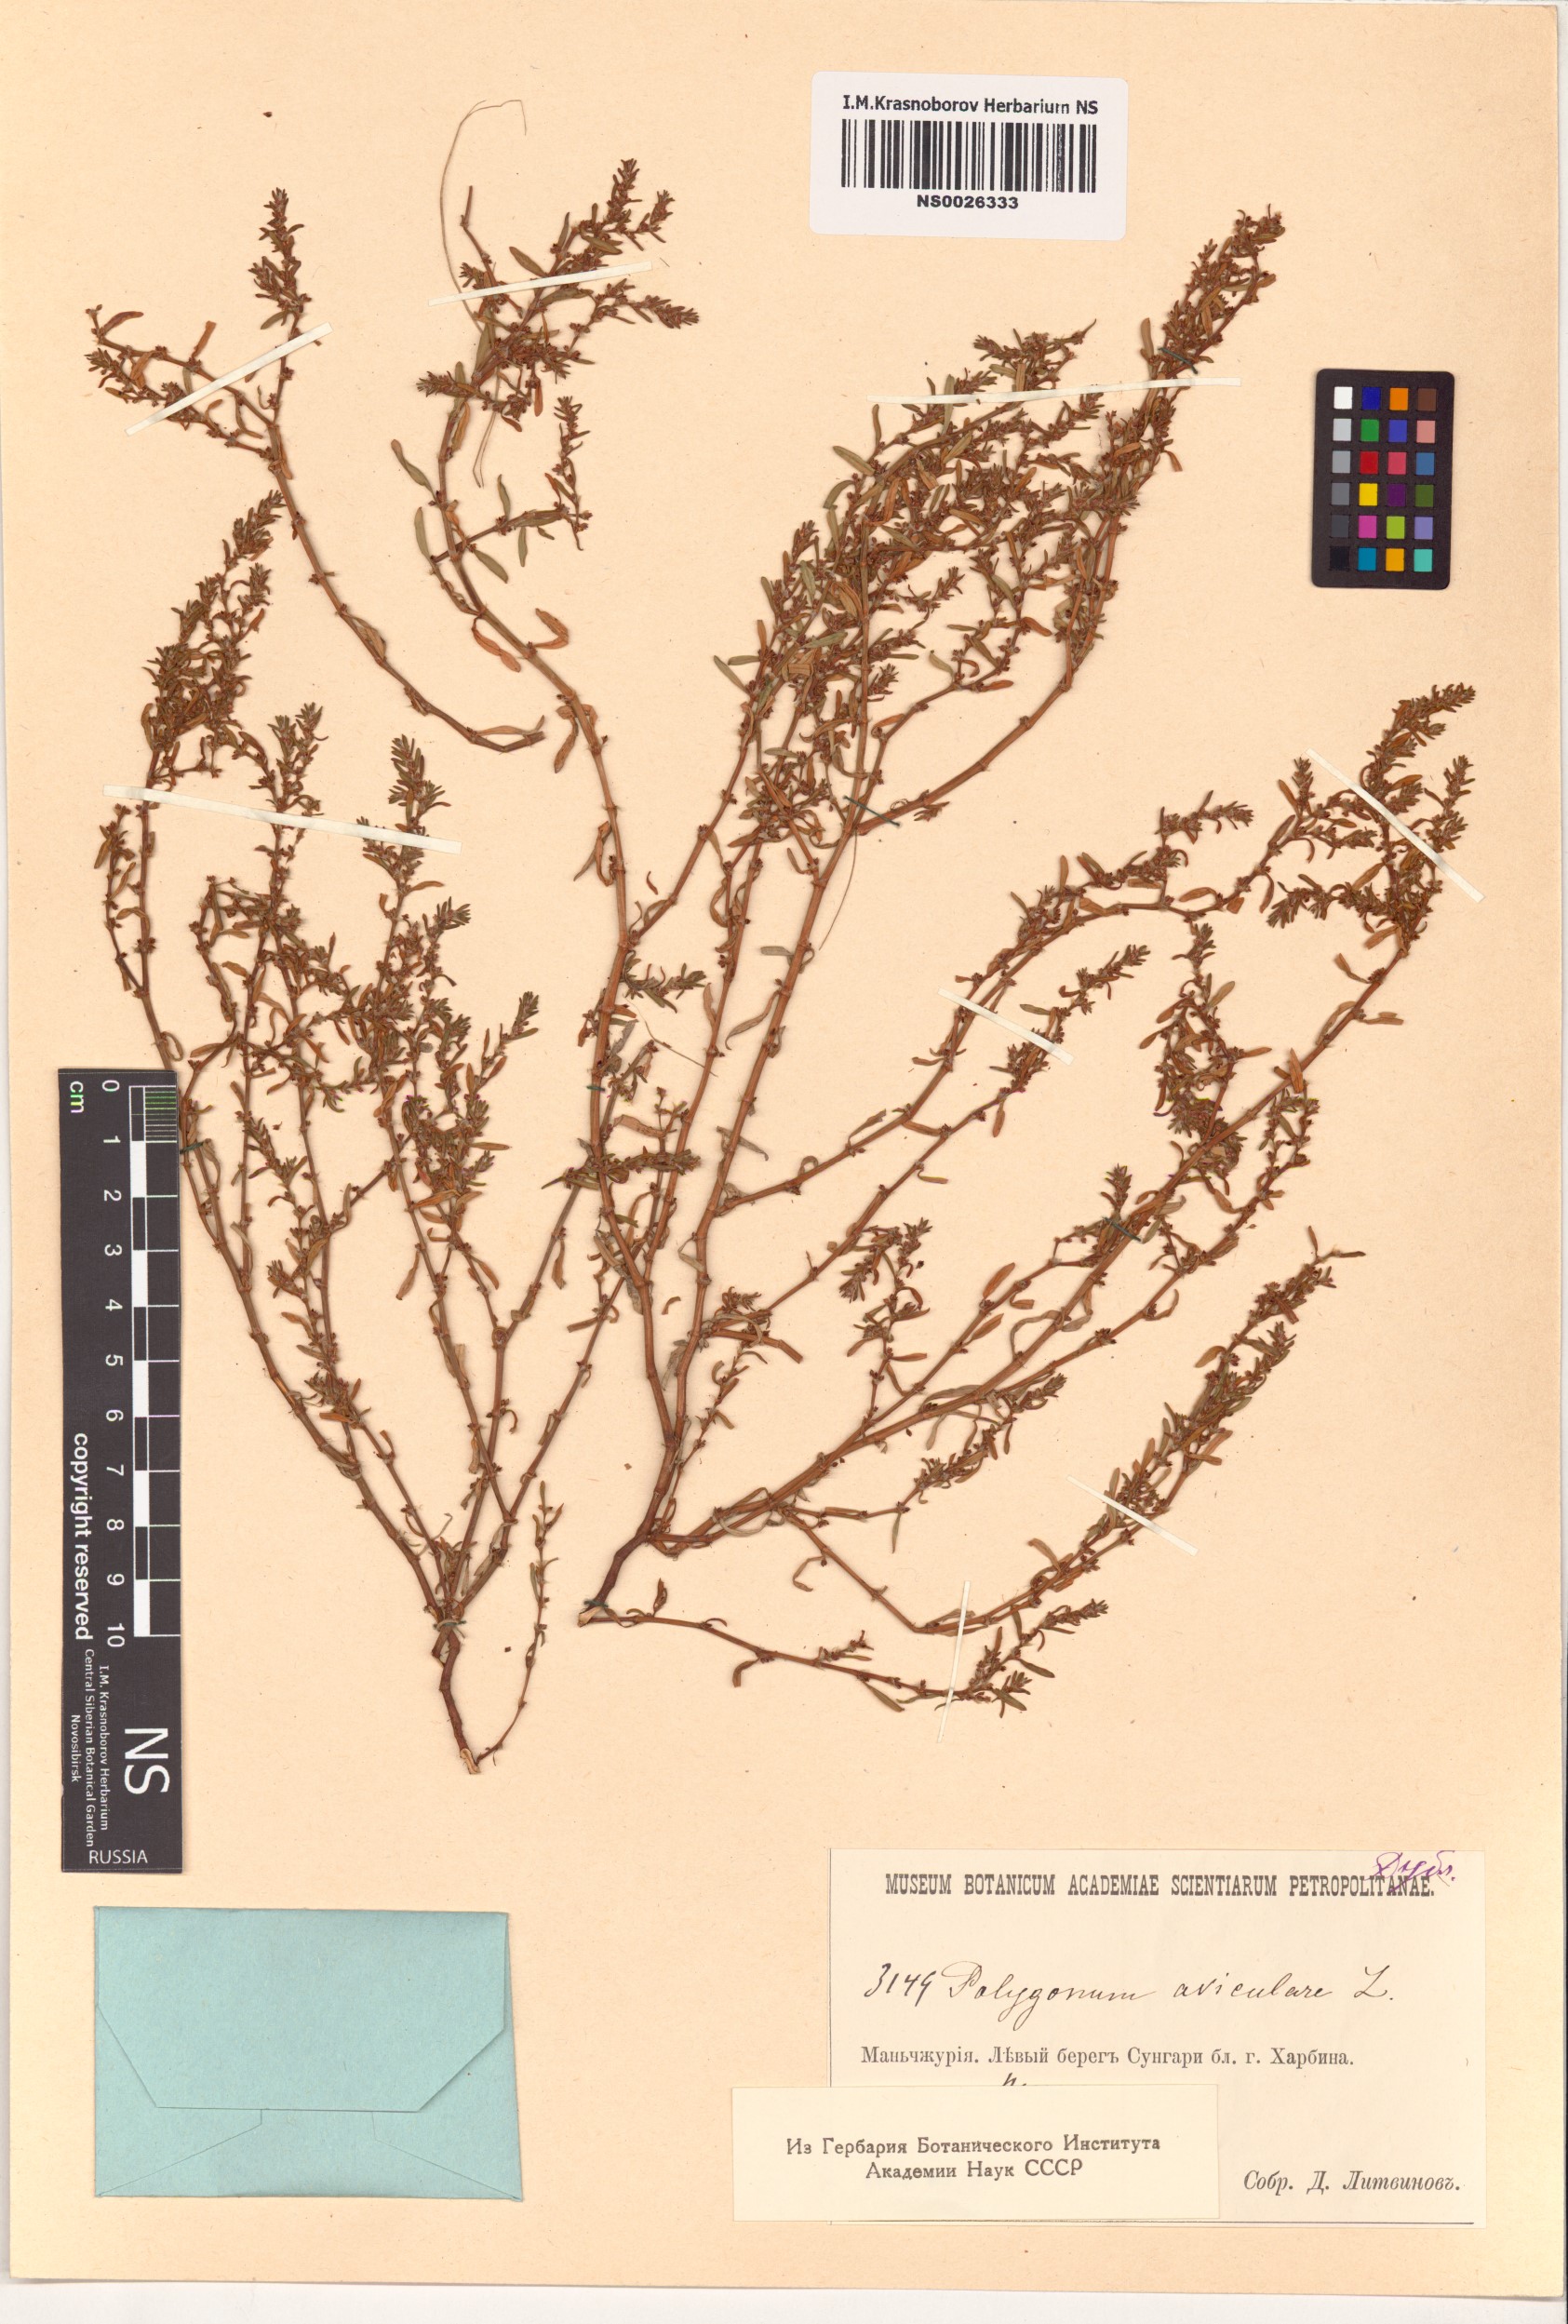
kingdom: Plantae
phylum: Tracheophyta
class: Magnoliopsida
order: Caryophyllales
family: Polygonaceae
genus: Polygonum
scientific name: Polygonum aviculare
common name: Prostrate knotweed
